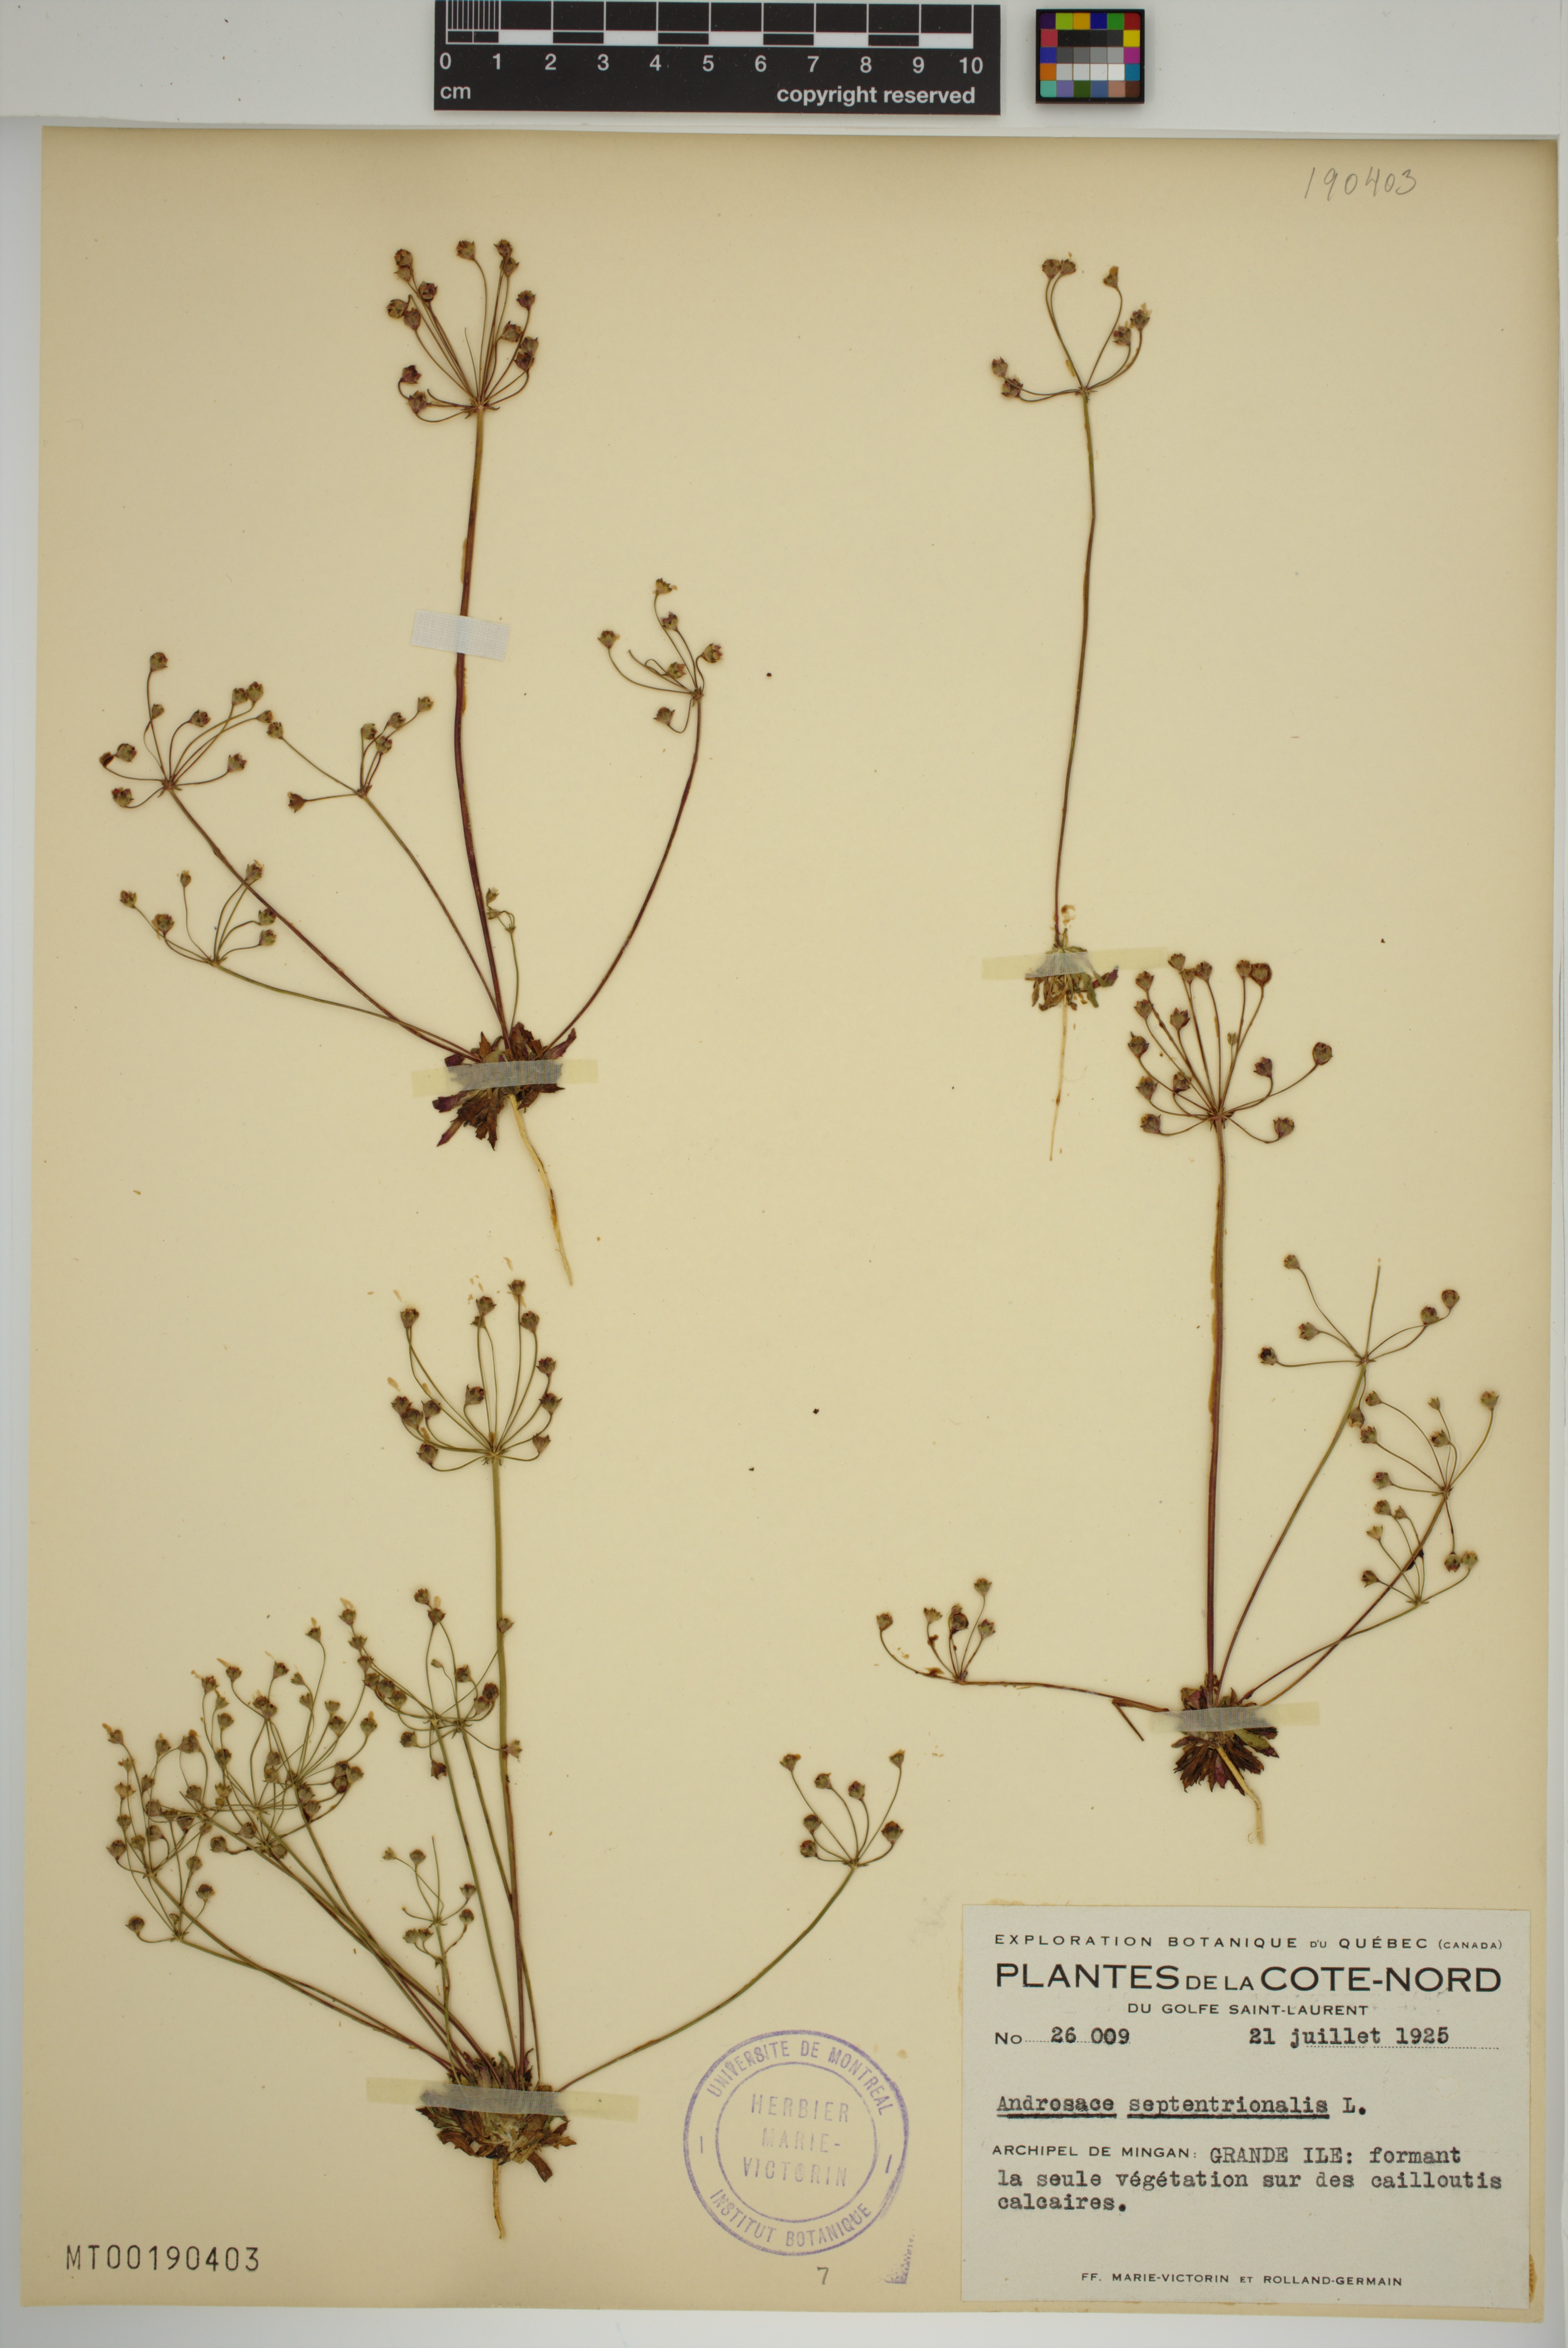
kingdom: Plantae
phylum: Tracheophyta
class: Magnoliopsida
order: Ericales
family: Primulaceae
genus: Androsace
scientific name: Androsace septentrionalis
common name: Hairy northern fairy-candelabra
